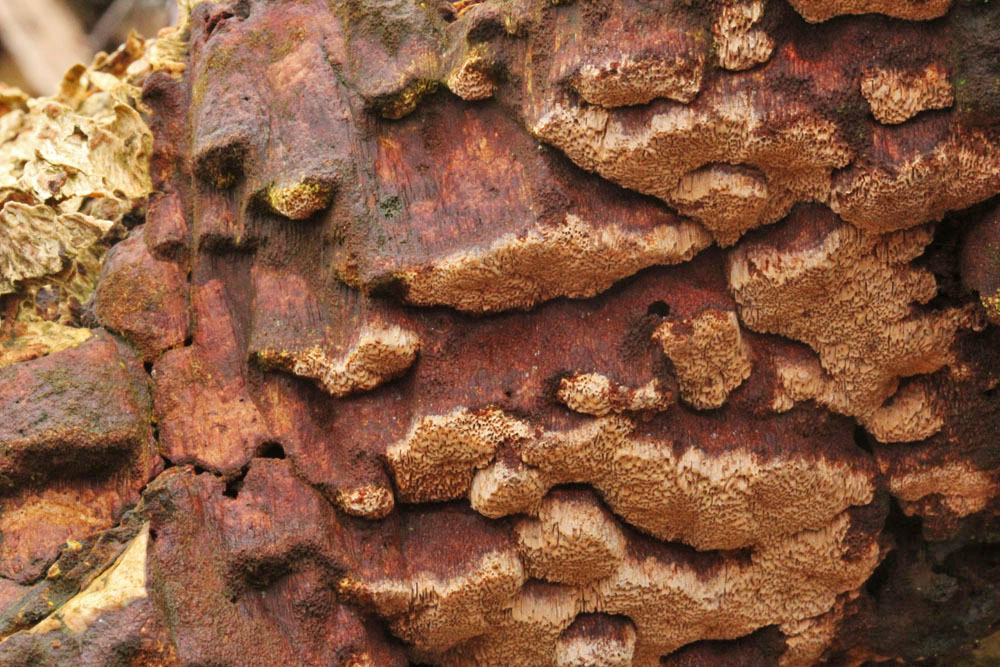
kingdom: Fungi
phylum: Basidiomycota
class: Agaricomycetes
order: Hymenochaetales
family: Hymenochaetaceae
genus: Fuscoporia
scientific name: Fuscoporia ferruginosa
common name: rustbrun ildporesvamp
